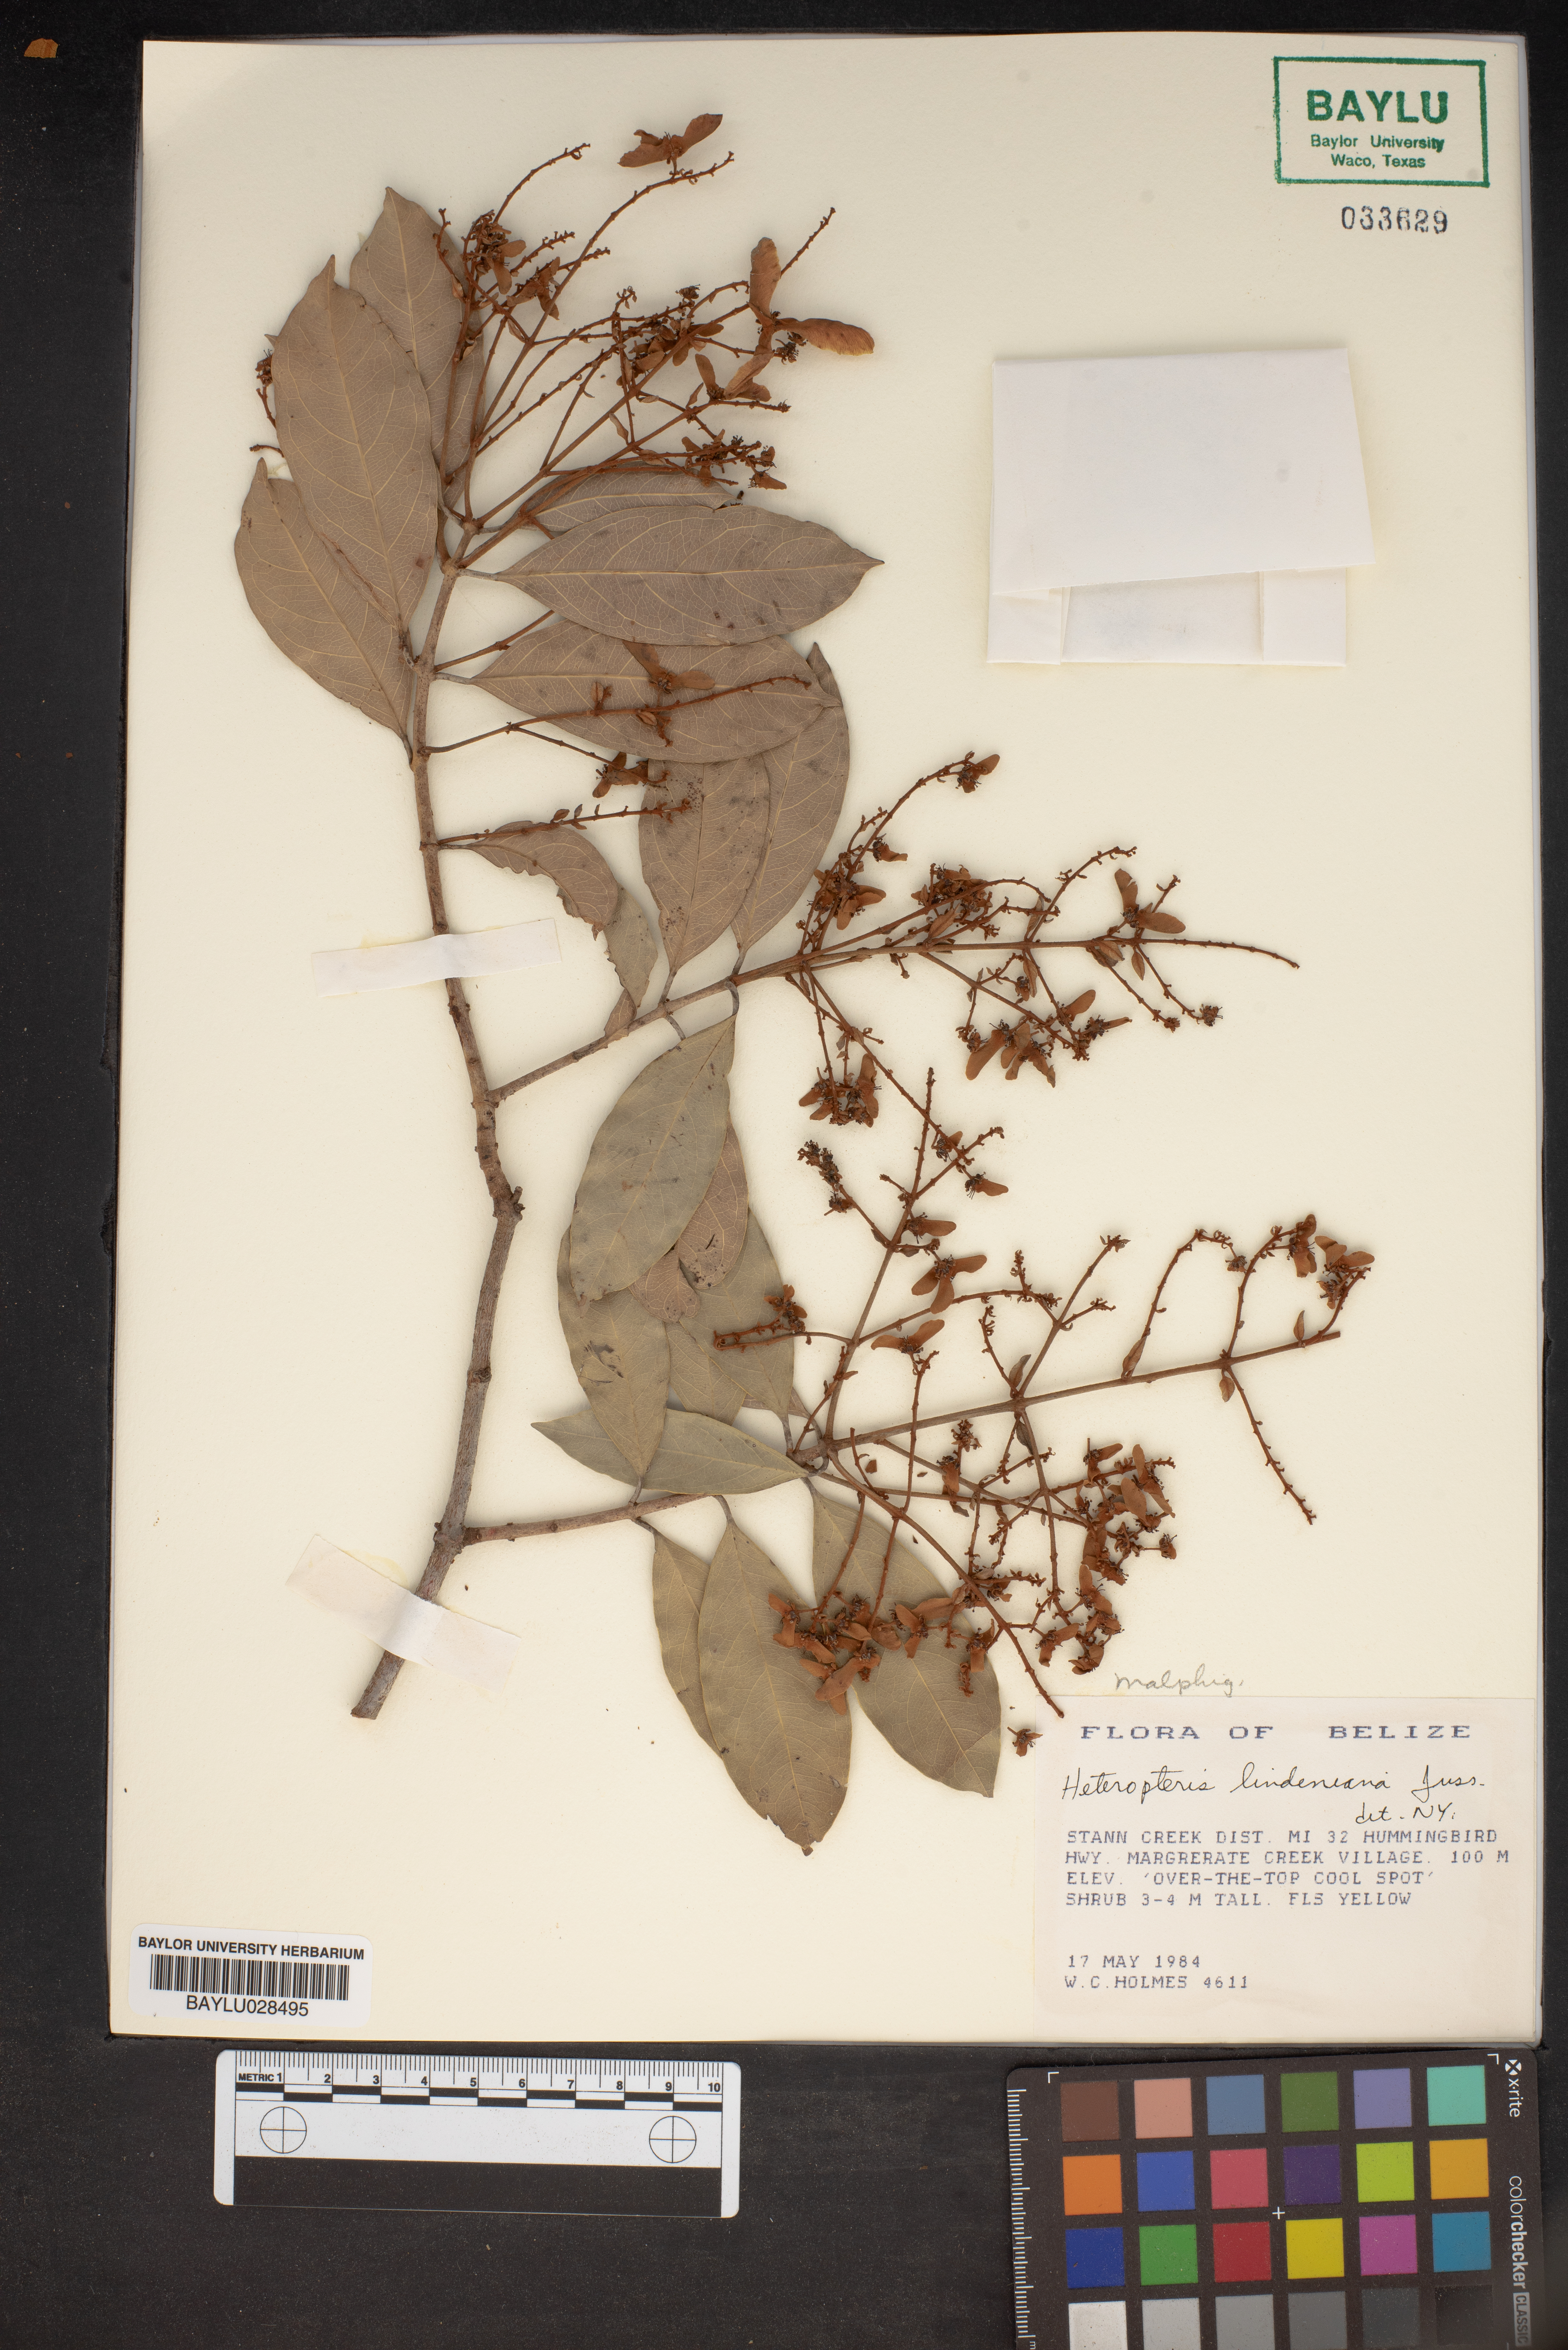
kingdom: Plantae
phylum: Tracheophyta
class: Magnoliopsida
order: Malpighiales
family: Malpighiaceae
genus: Heteropterys
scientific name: Heteropterys lindeniana
